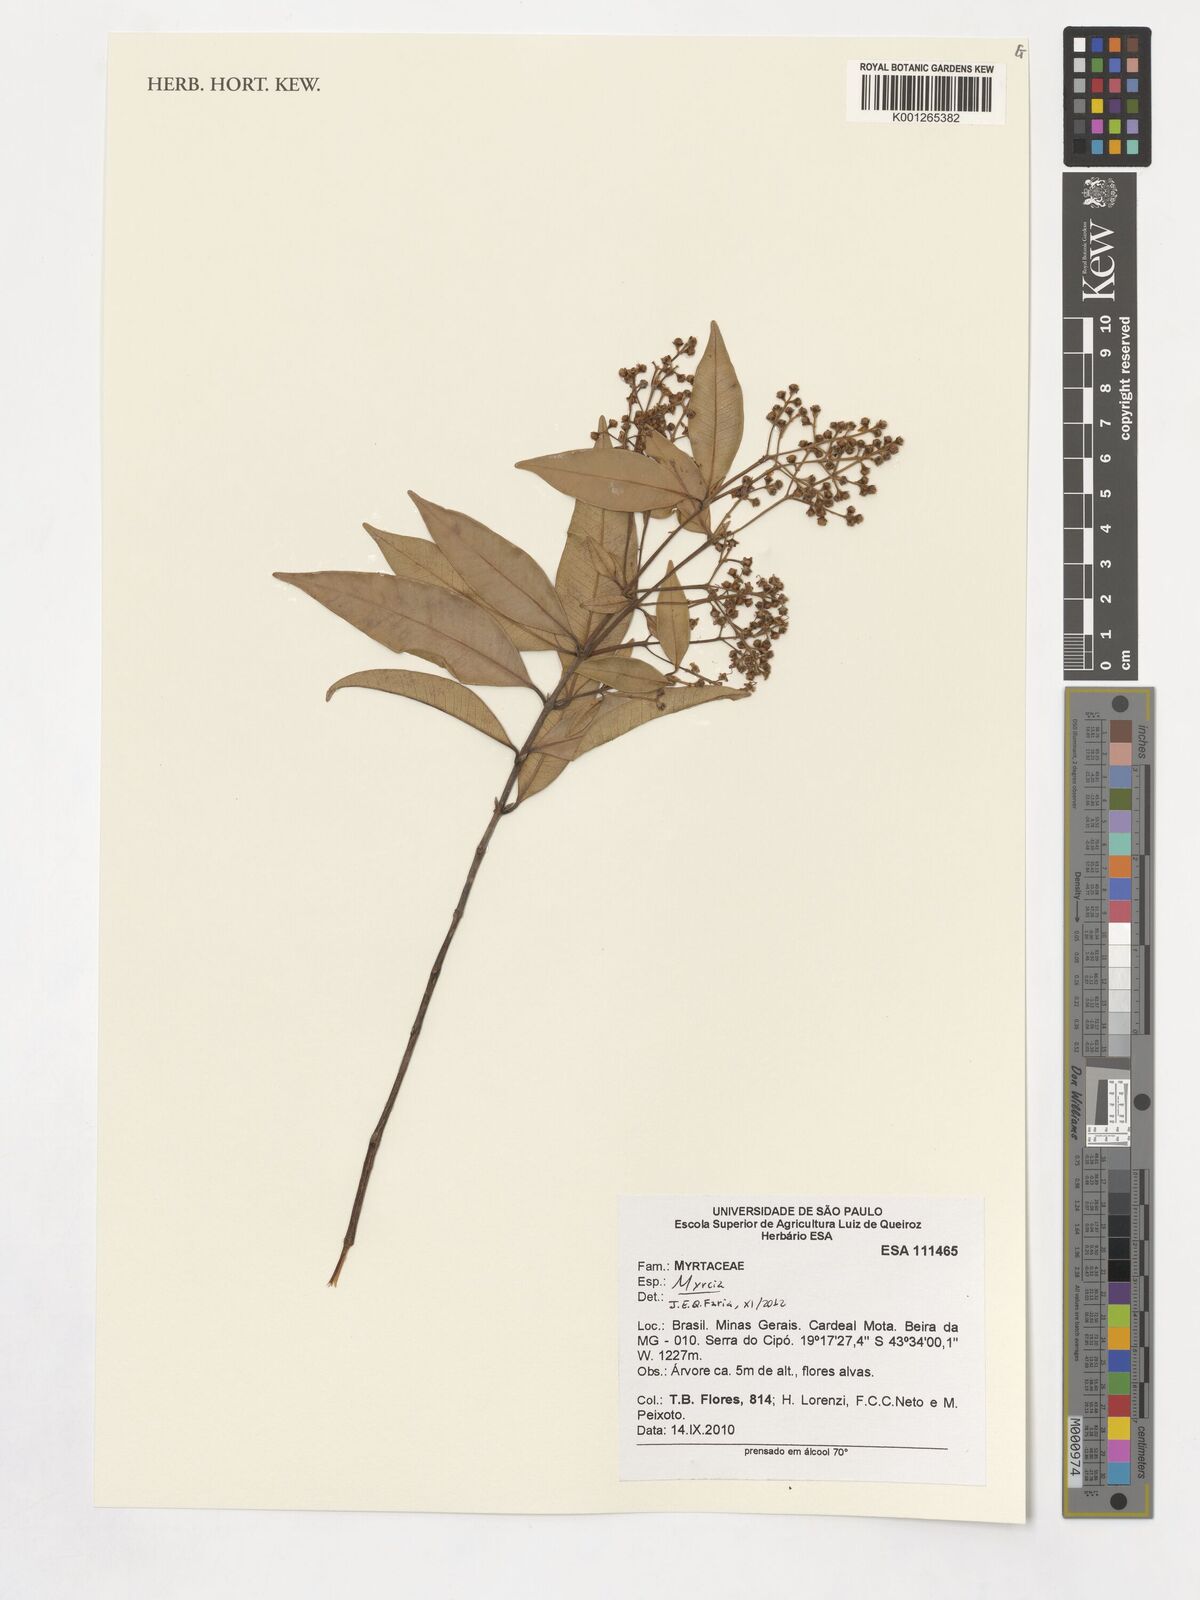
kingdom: Plantae
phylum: Tracheophyta
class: Magnoliopsida
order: Myrtales
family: Myrtaceae
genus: Myrcia
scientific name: Myrcia splendens
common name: Surinam cherry
